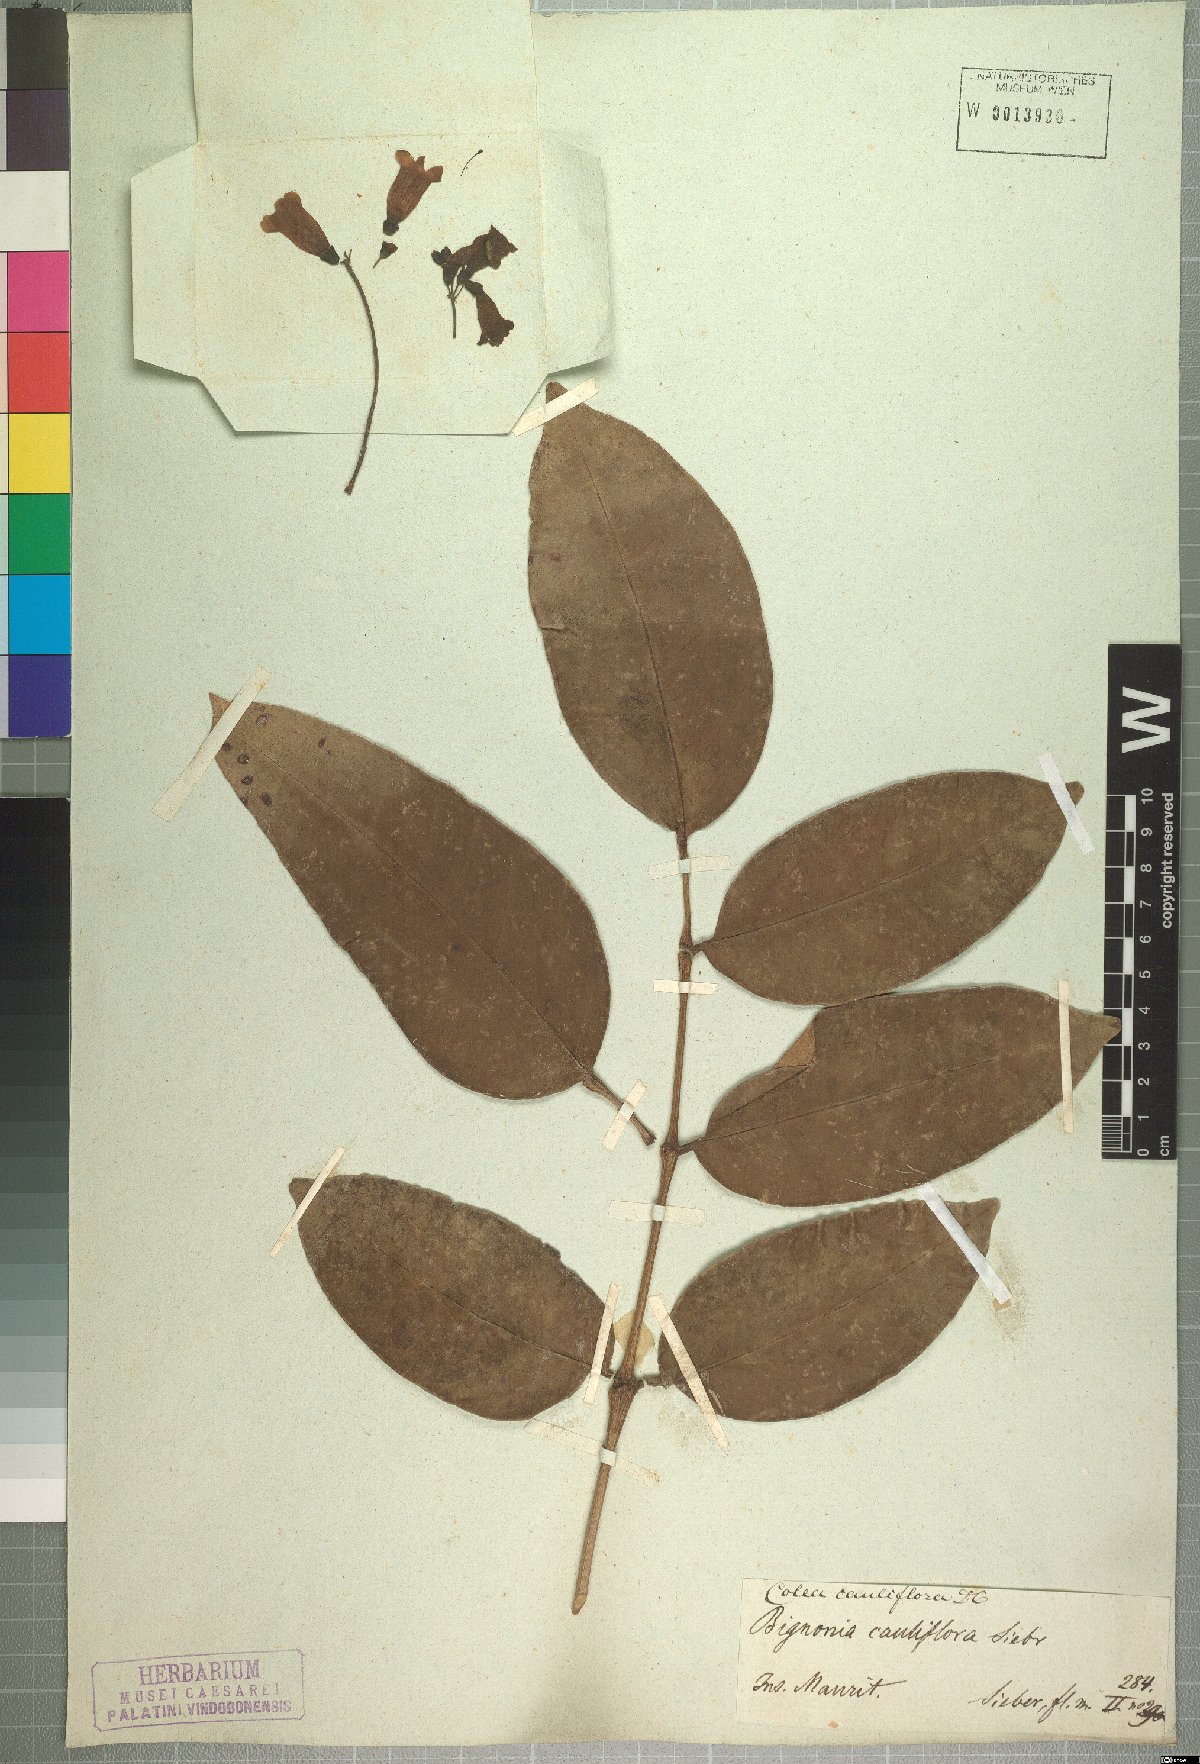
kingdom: Plantae
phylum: Tracheophyta
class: Magnoliopsida
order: Lamiales
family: Bignoniaceae
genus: Colea
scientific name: Colea floribunda
